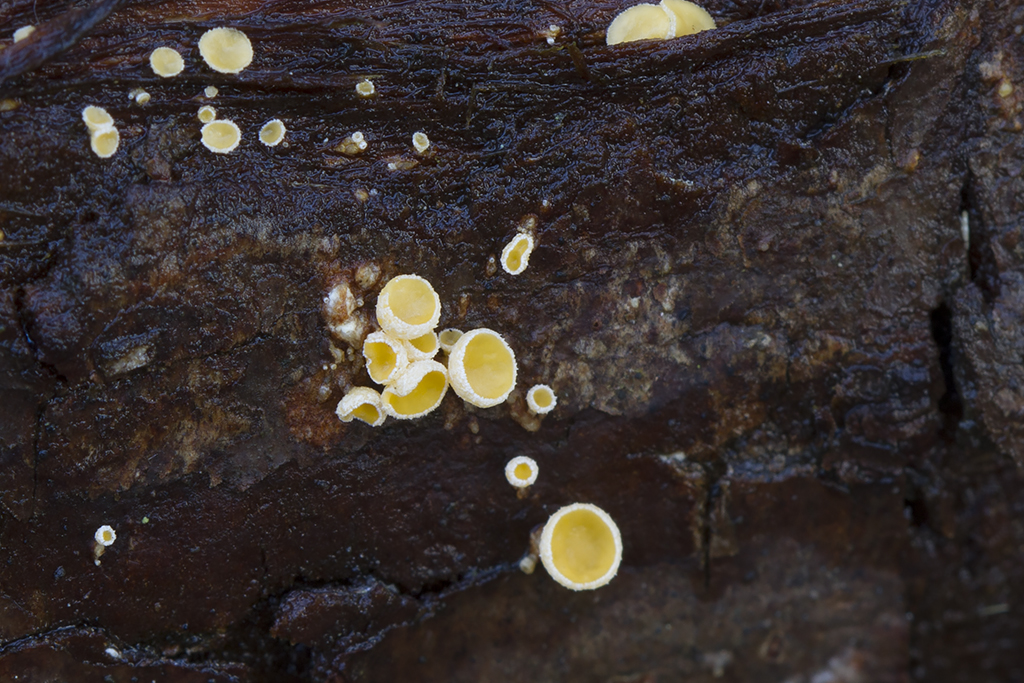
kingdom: Fungi
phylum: Ascomycota
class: Leotiomycetes
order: Helotiales
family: Lachnaceae
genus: Lachnellula
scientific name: Lachnellula subtilissima
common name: gran-frynseskive
